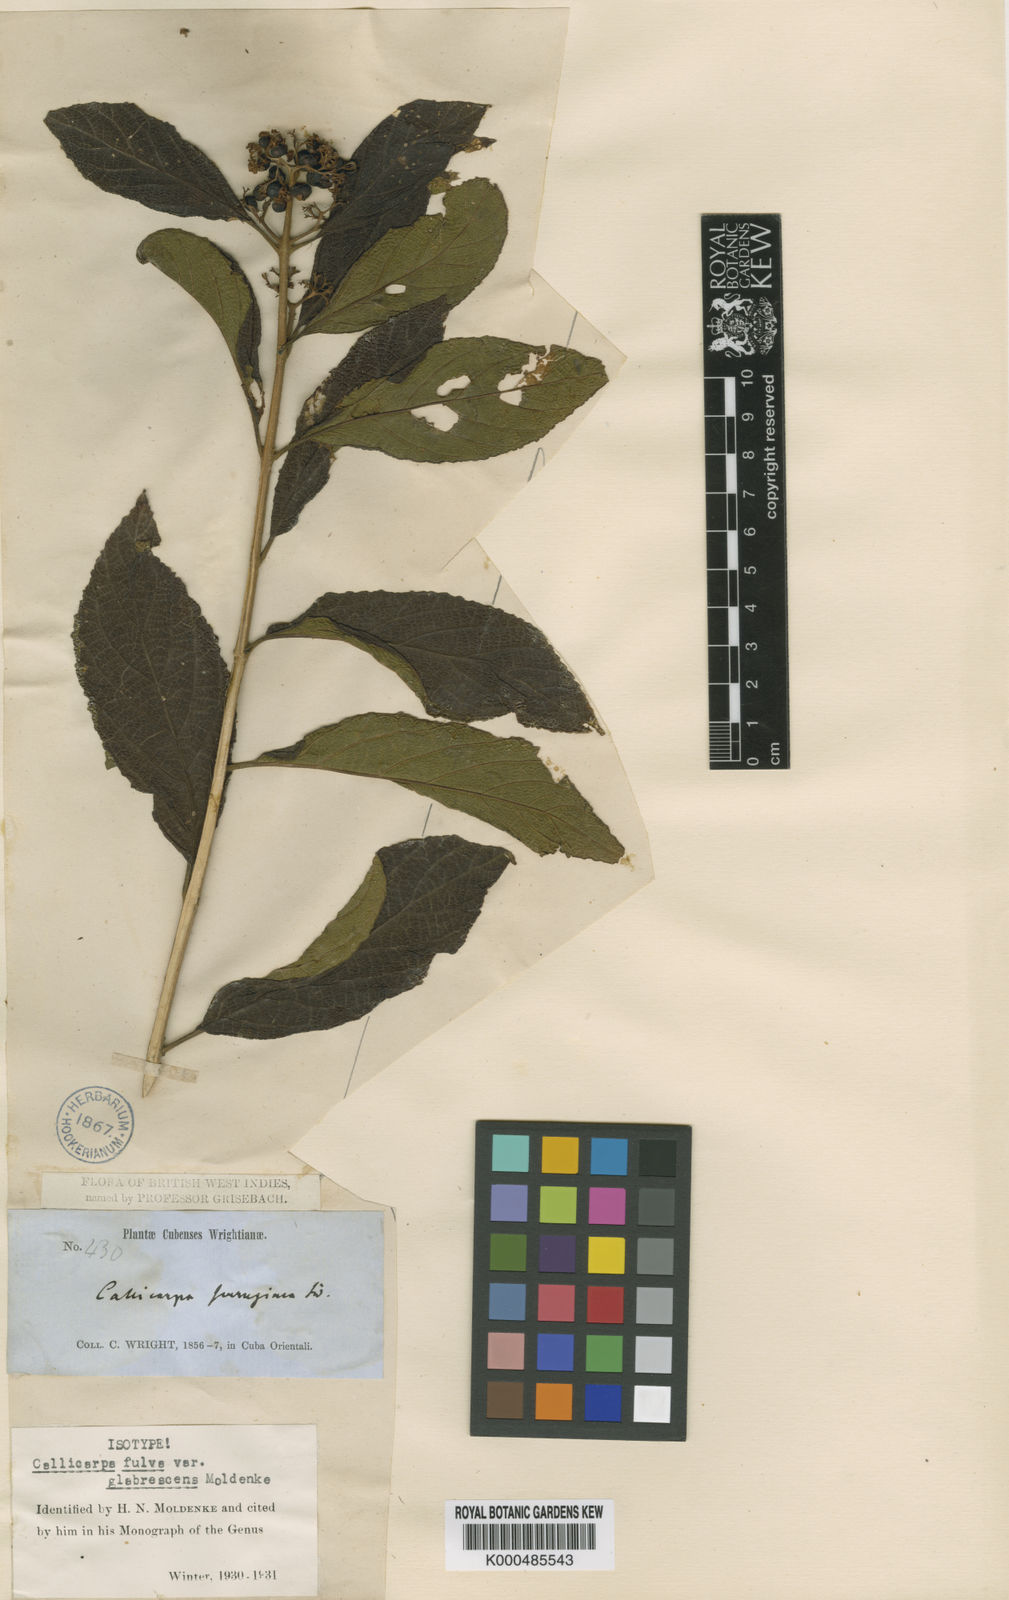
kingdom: Plantae
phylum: Tracheophyta
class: Magnoliopsida
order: Lamiales
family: Lamiaceae
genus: Callicarpa
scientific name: Callicarpa fulva
